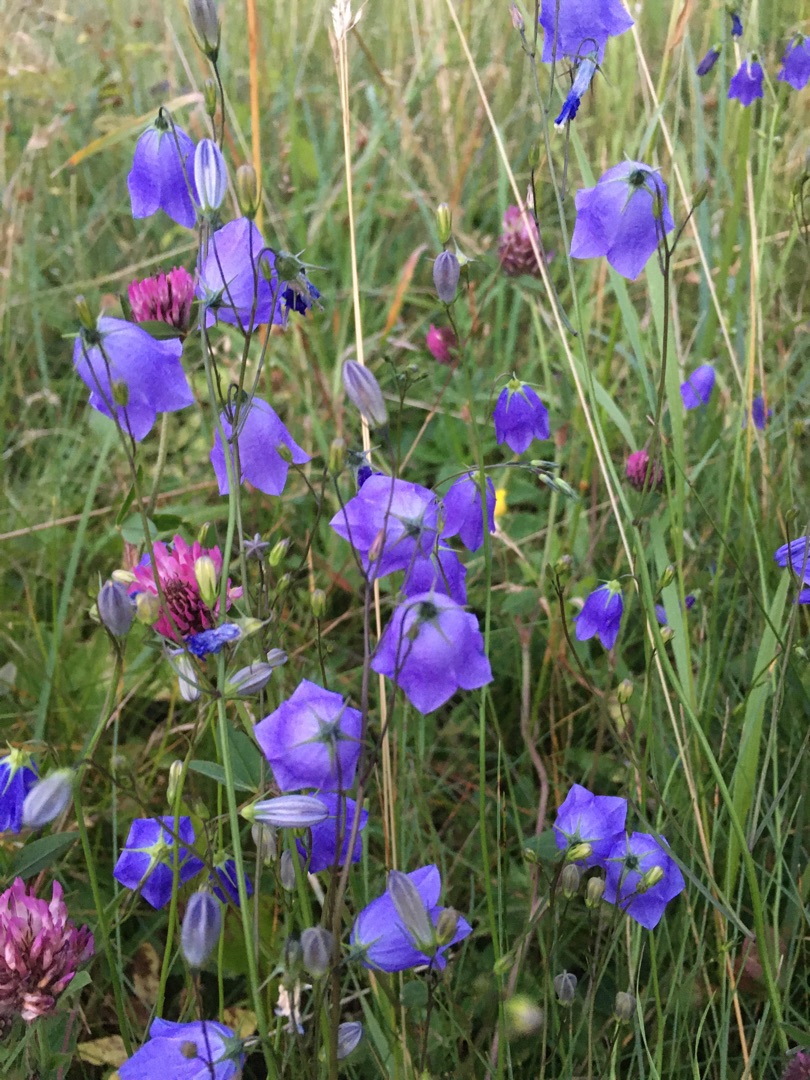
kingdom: Plantae
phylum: Tracheophyta
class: Magnoliopsida
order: Asterales
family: Campanulaceae
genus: Campanula
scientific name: Campanula rotundifolia
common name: Liden klokke
